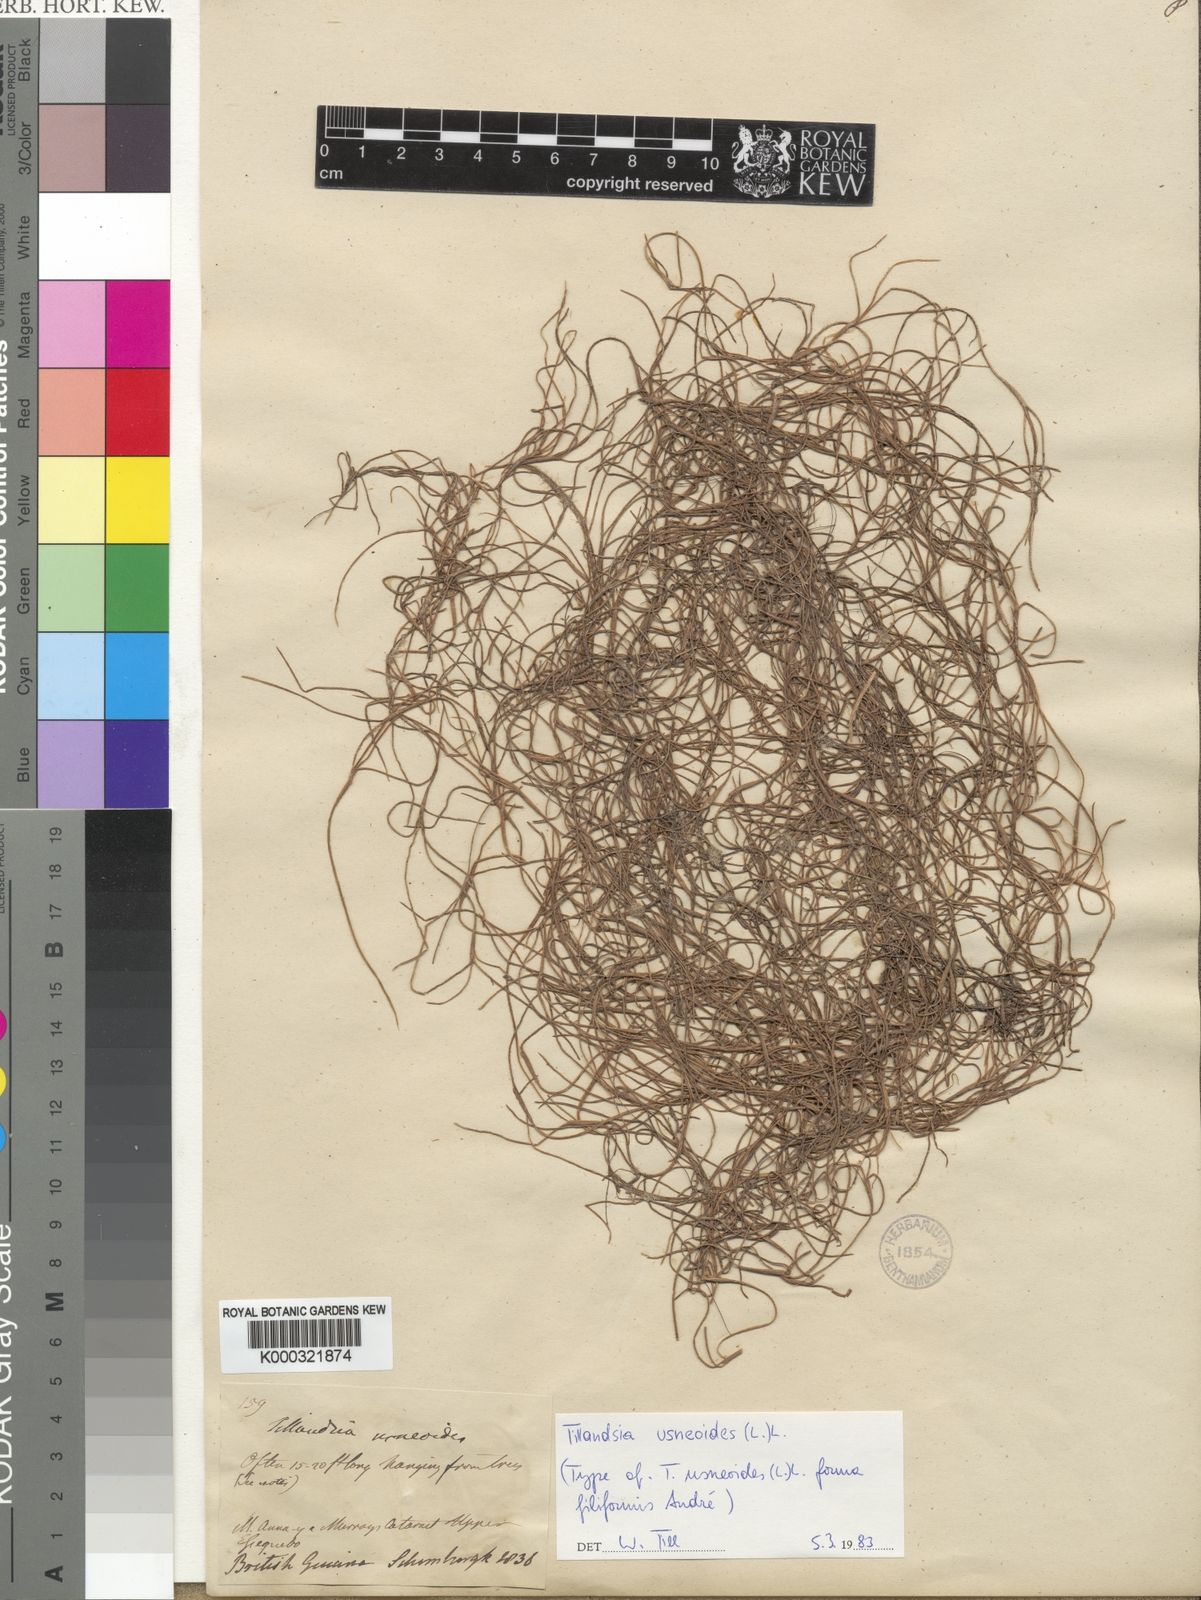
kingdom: Plantae
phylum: Tracheophyta
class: Liliopsida
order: Poales
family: Bromeliaceae
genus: Tillandsia
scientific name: Tillandsia usneoides
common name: Spanish moss
